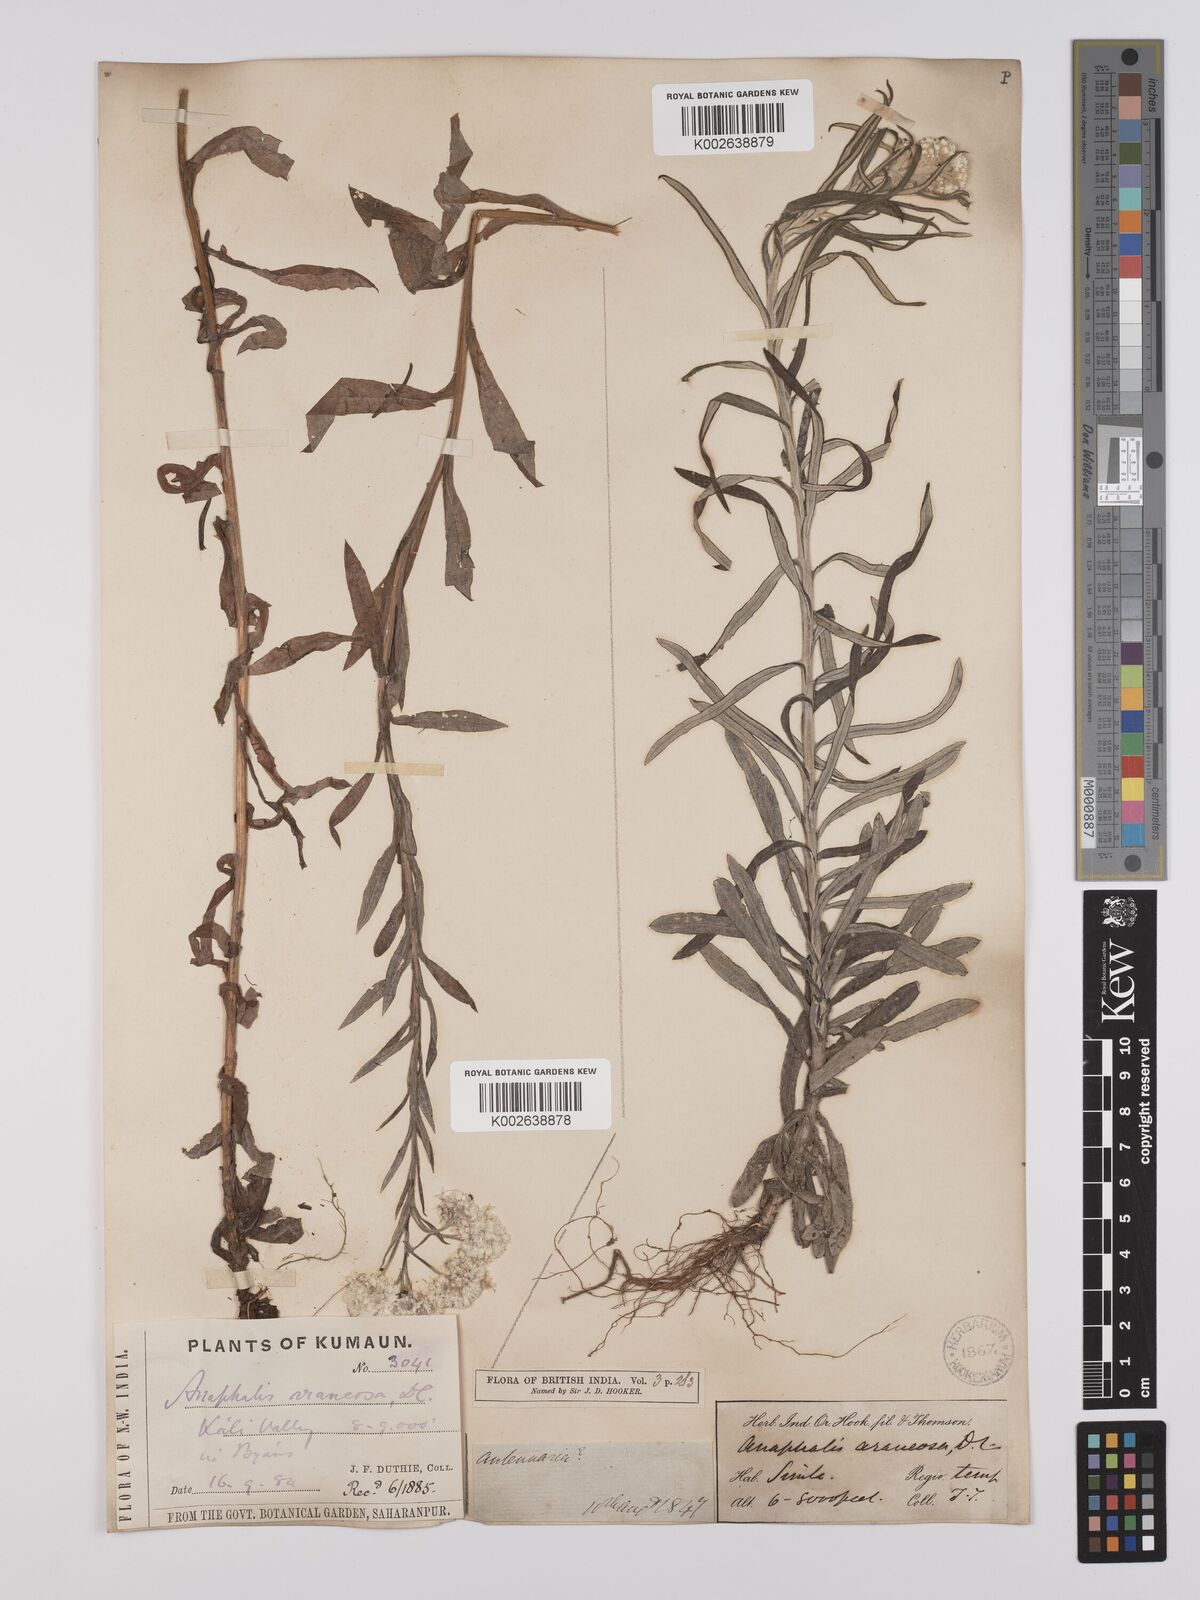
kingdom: Plantae
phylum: Tracheophyta
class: Magnoliopsida
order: Asterales
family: Asteraceae
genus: Anaphalis
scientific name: Anaphalis busua
